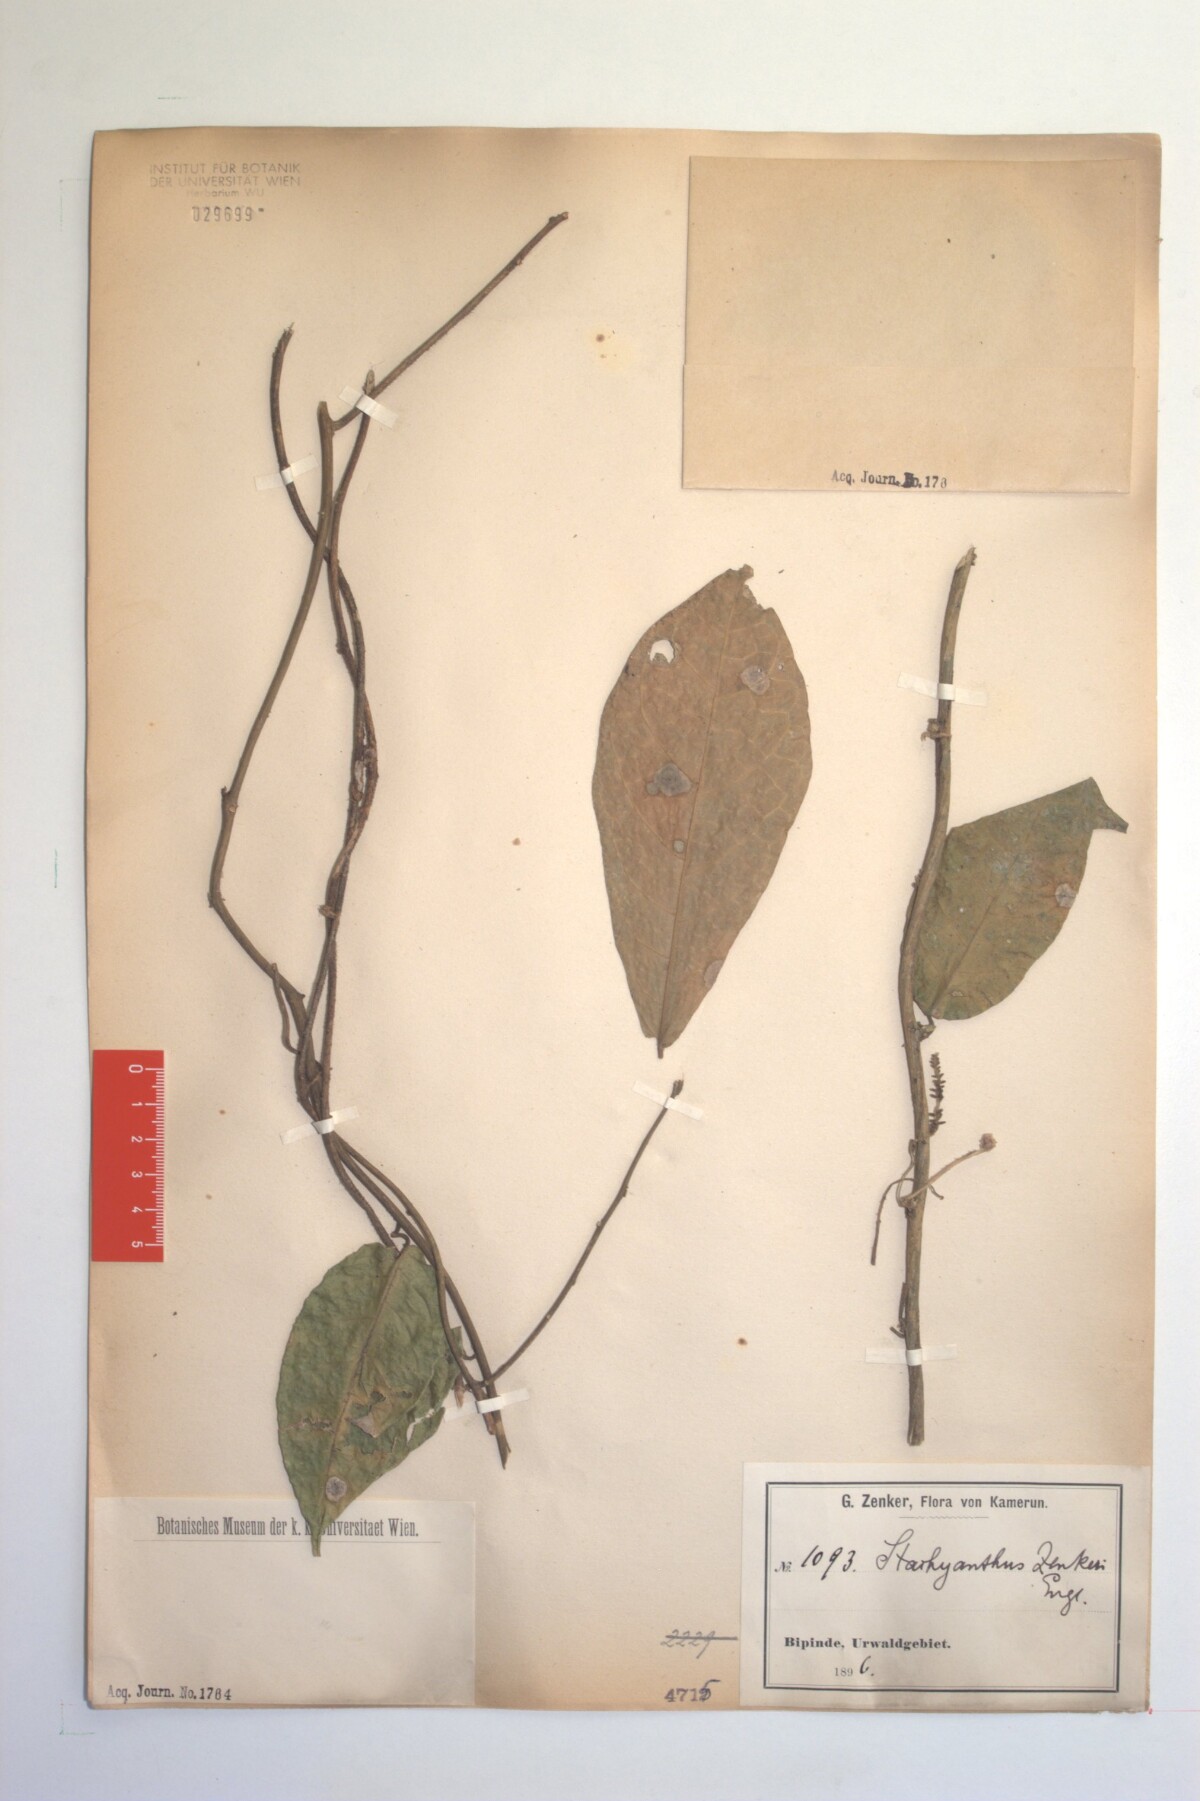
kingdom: Plantae
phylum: Tracheophyta
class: Magnoliopsida
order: Icacinales
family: Icacinaceae
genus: Stachyanthus
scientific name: Stachyanthus zenkeri
